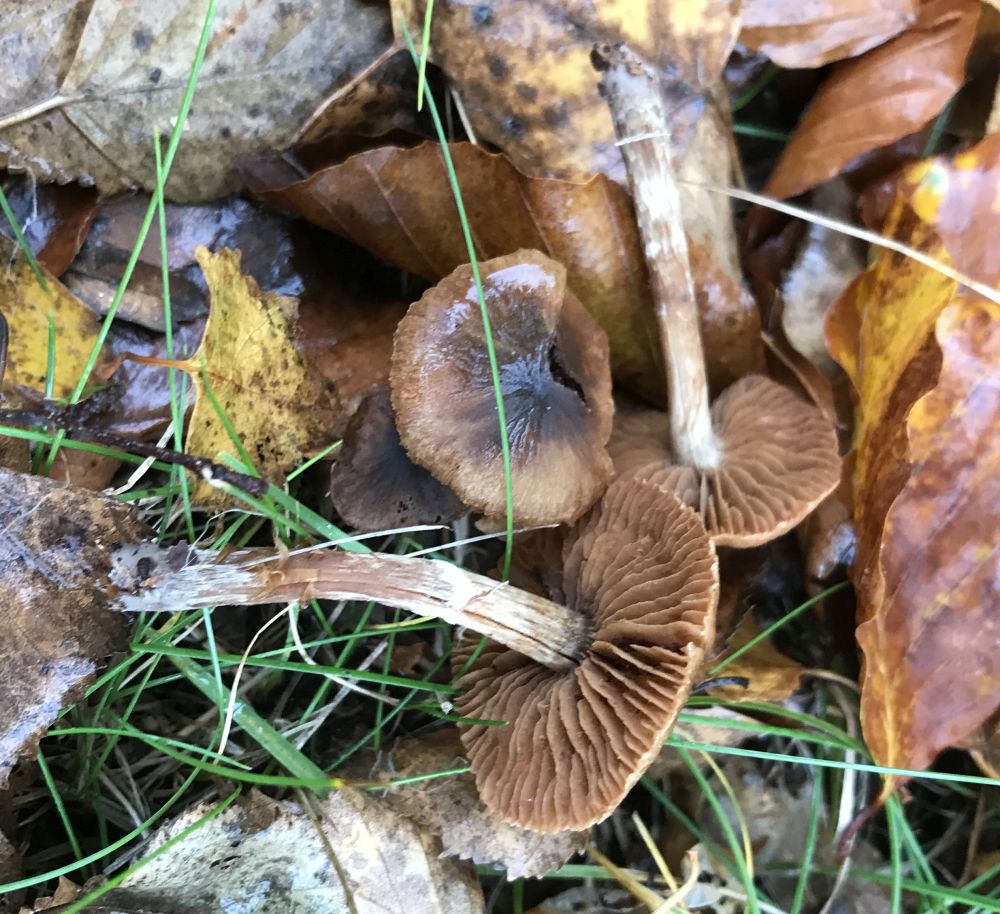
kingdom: Fungi
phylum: Basidiomycota
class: Agaricomycetes
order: Agaricales
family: Cortinariaceae
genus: Cortinarius
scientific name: Cortinarius
